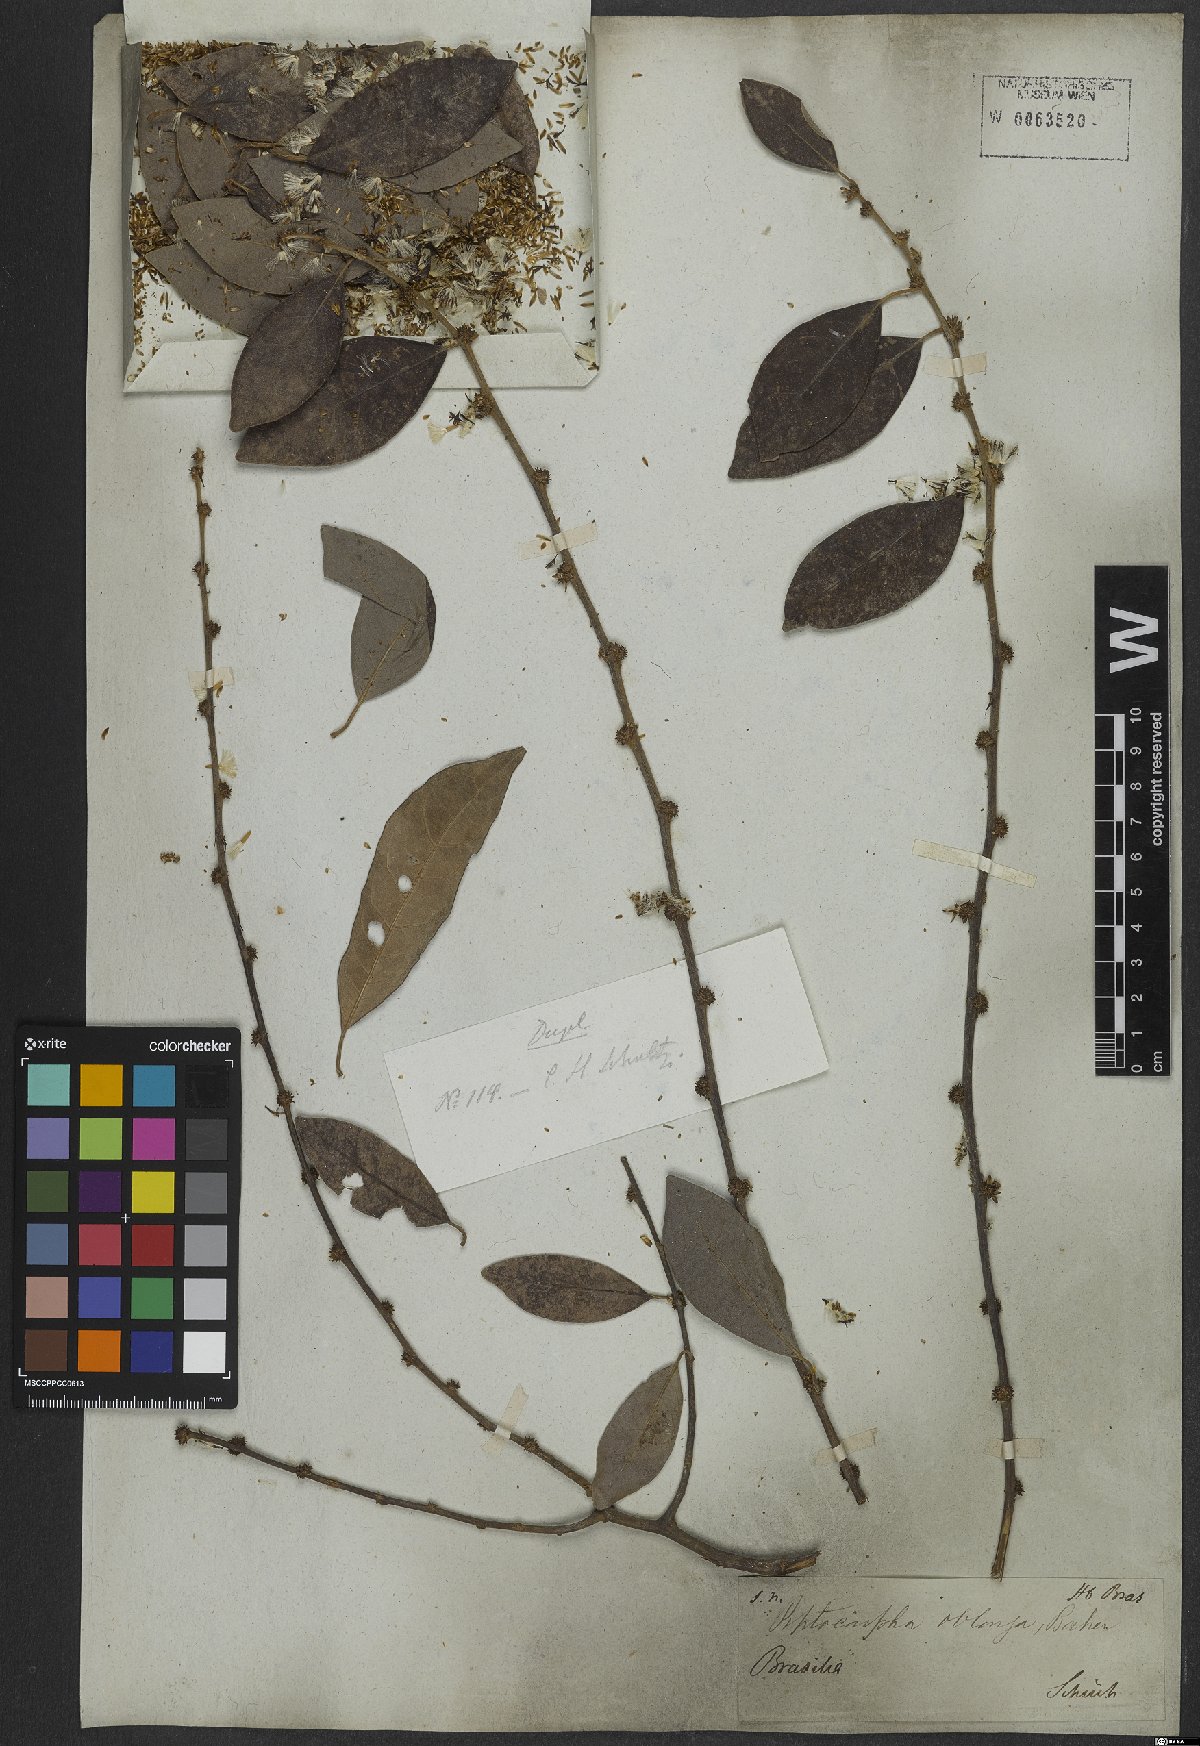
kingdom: Plantae
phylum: Tracheophyta
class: Magnoliopsida
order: Asterales
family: Asteraceae
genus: Piptocarpha
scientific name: Piptocarpha oblonga
